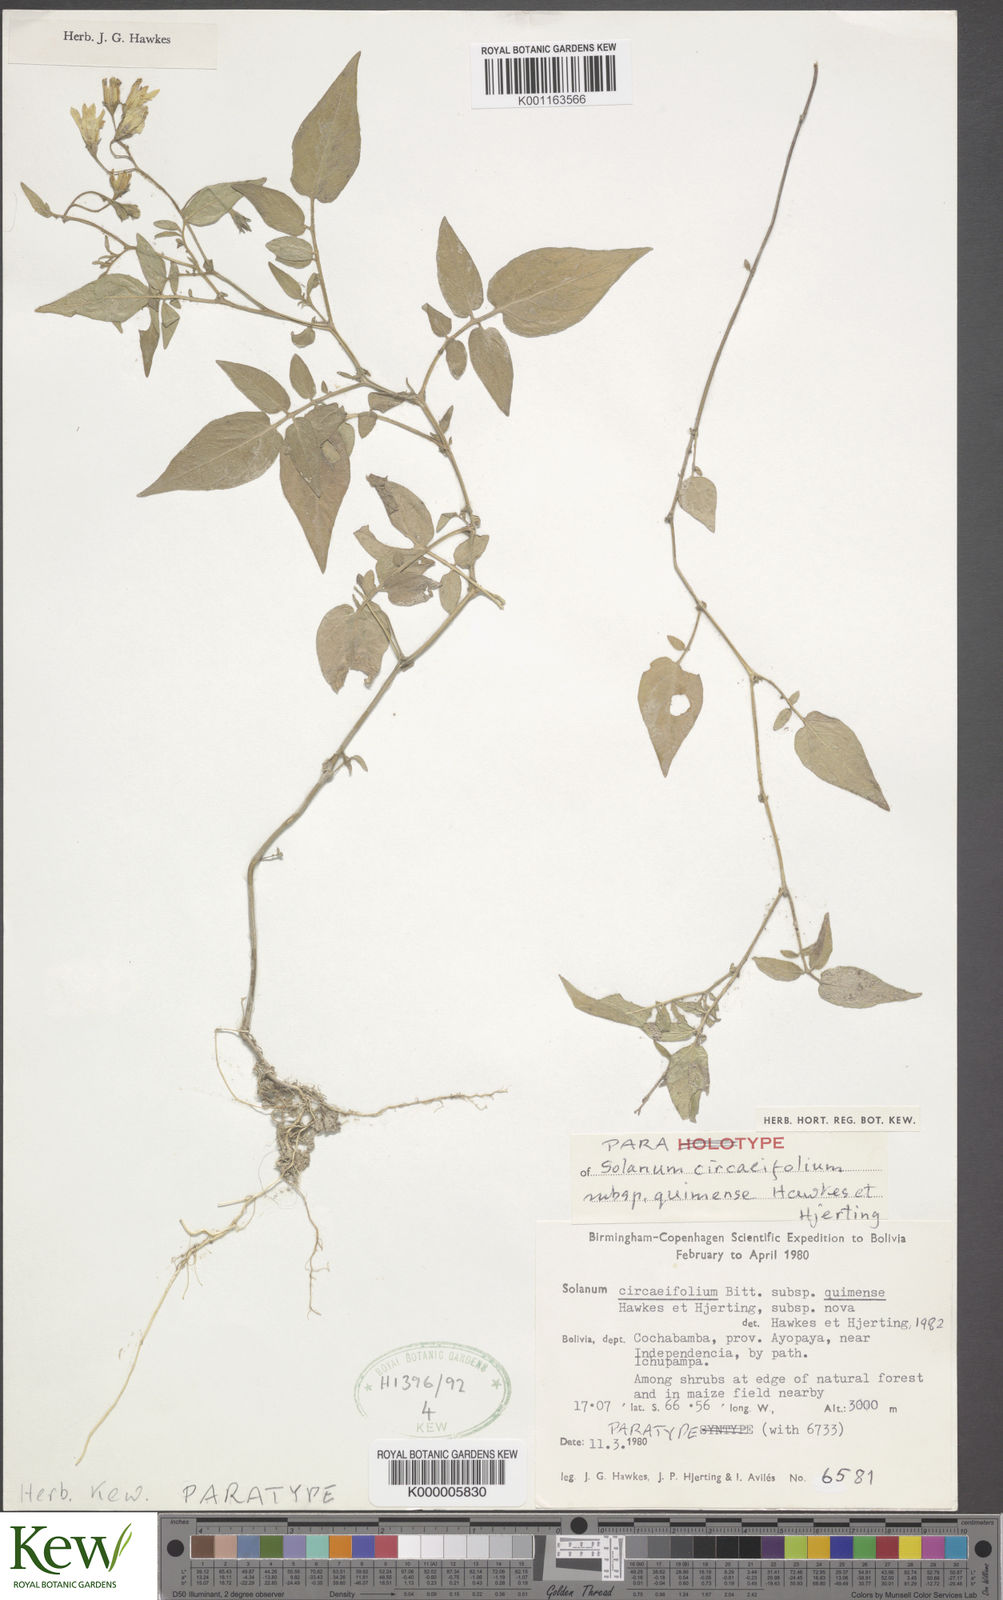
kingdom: Plantae
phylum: Tracheophyta
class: Magnoliopsida
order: Solanales
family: Solanaceae
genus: Solanum
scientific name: Solanum stipuloideum
